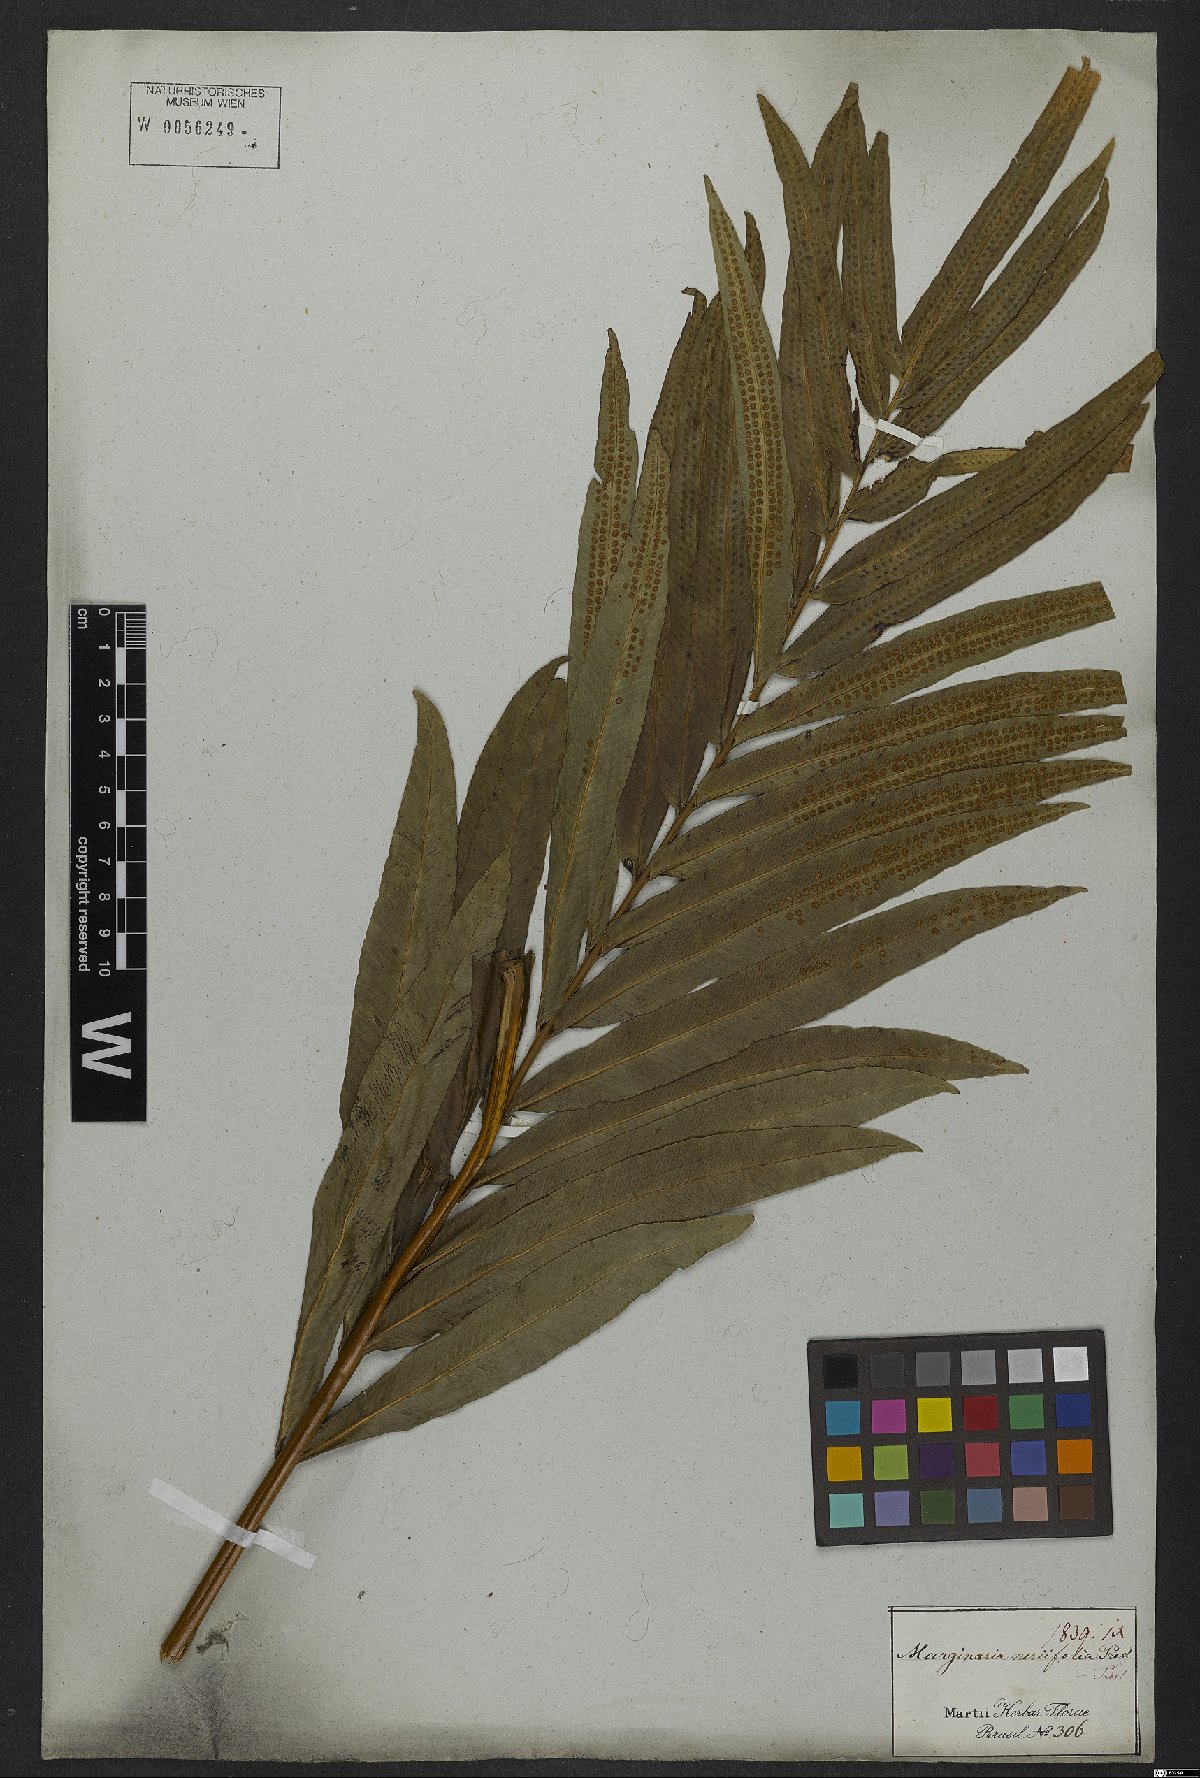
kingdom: Plantae
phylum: Tracheophyta
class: Polypodiopsida
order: Polypodiales
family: Polypodiaceae
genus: Serpocaulon
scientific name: Serpocaulon triseriale
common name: Angle-vein fern
